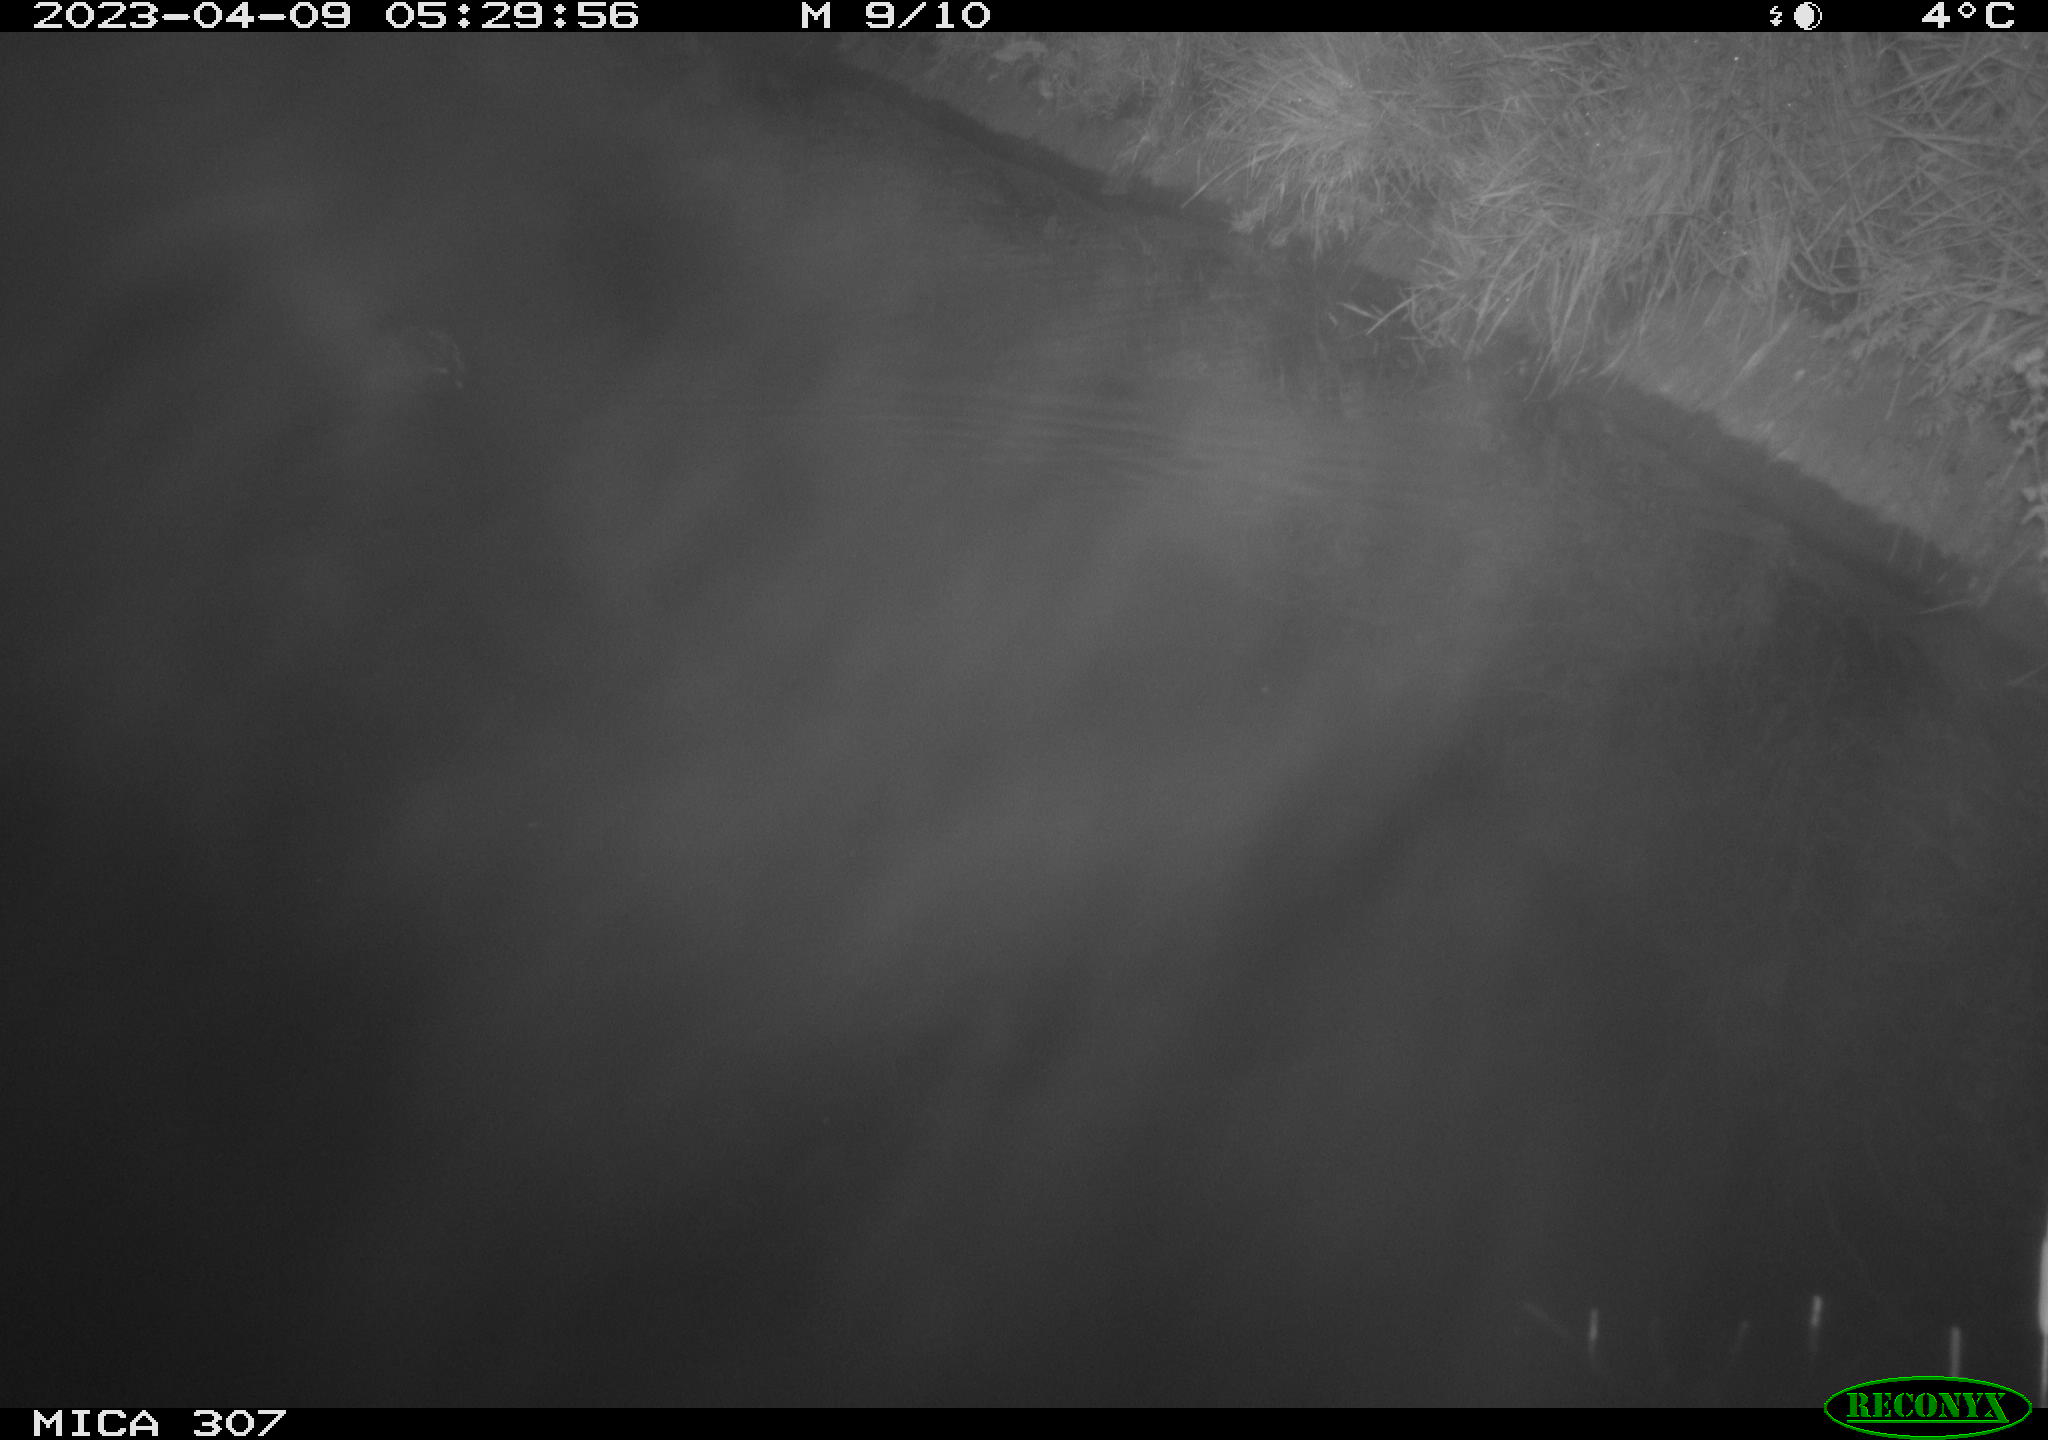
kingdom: Animalia
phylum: Chordata
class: Aves
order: Anseriformes
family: Anatidae
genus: Anas
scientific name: Anas
